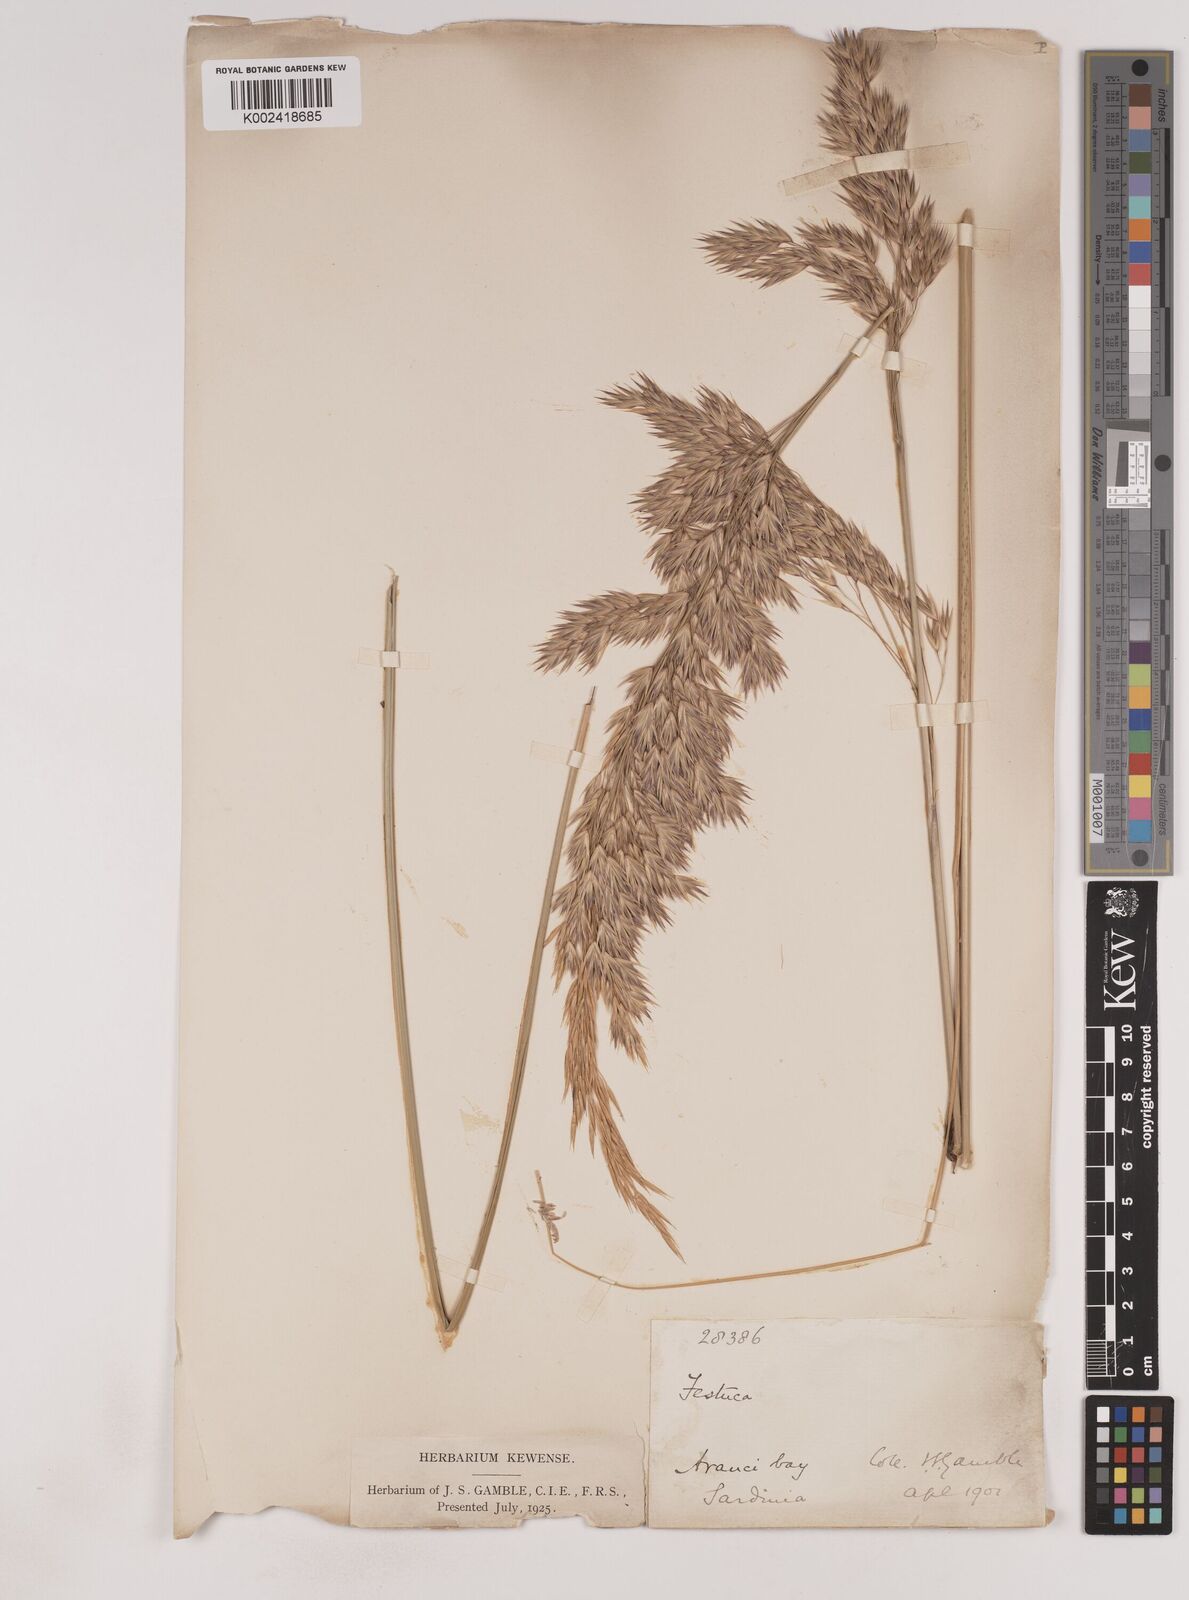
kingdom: Plantae
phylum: Tracheophyta
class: Liliopsida
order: Poales
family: Poaceae
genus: Ampelodesmos
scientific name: Ampelodesmos mauritanicus
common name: Mauritanian grass
